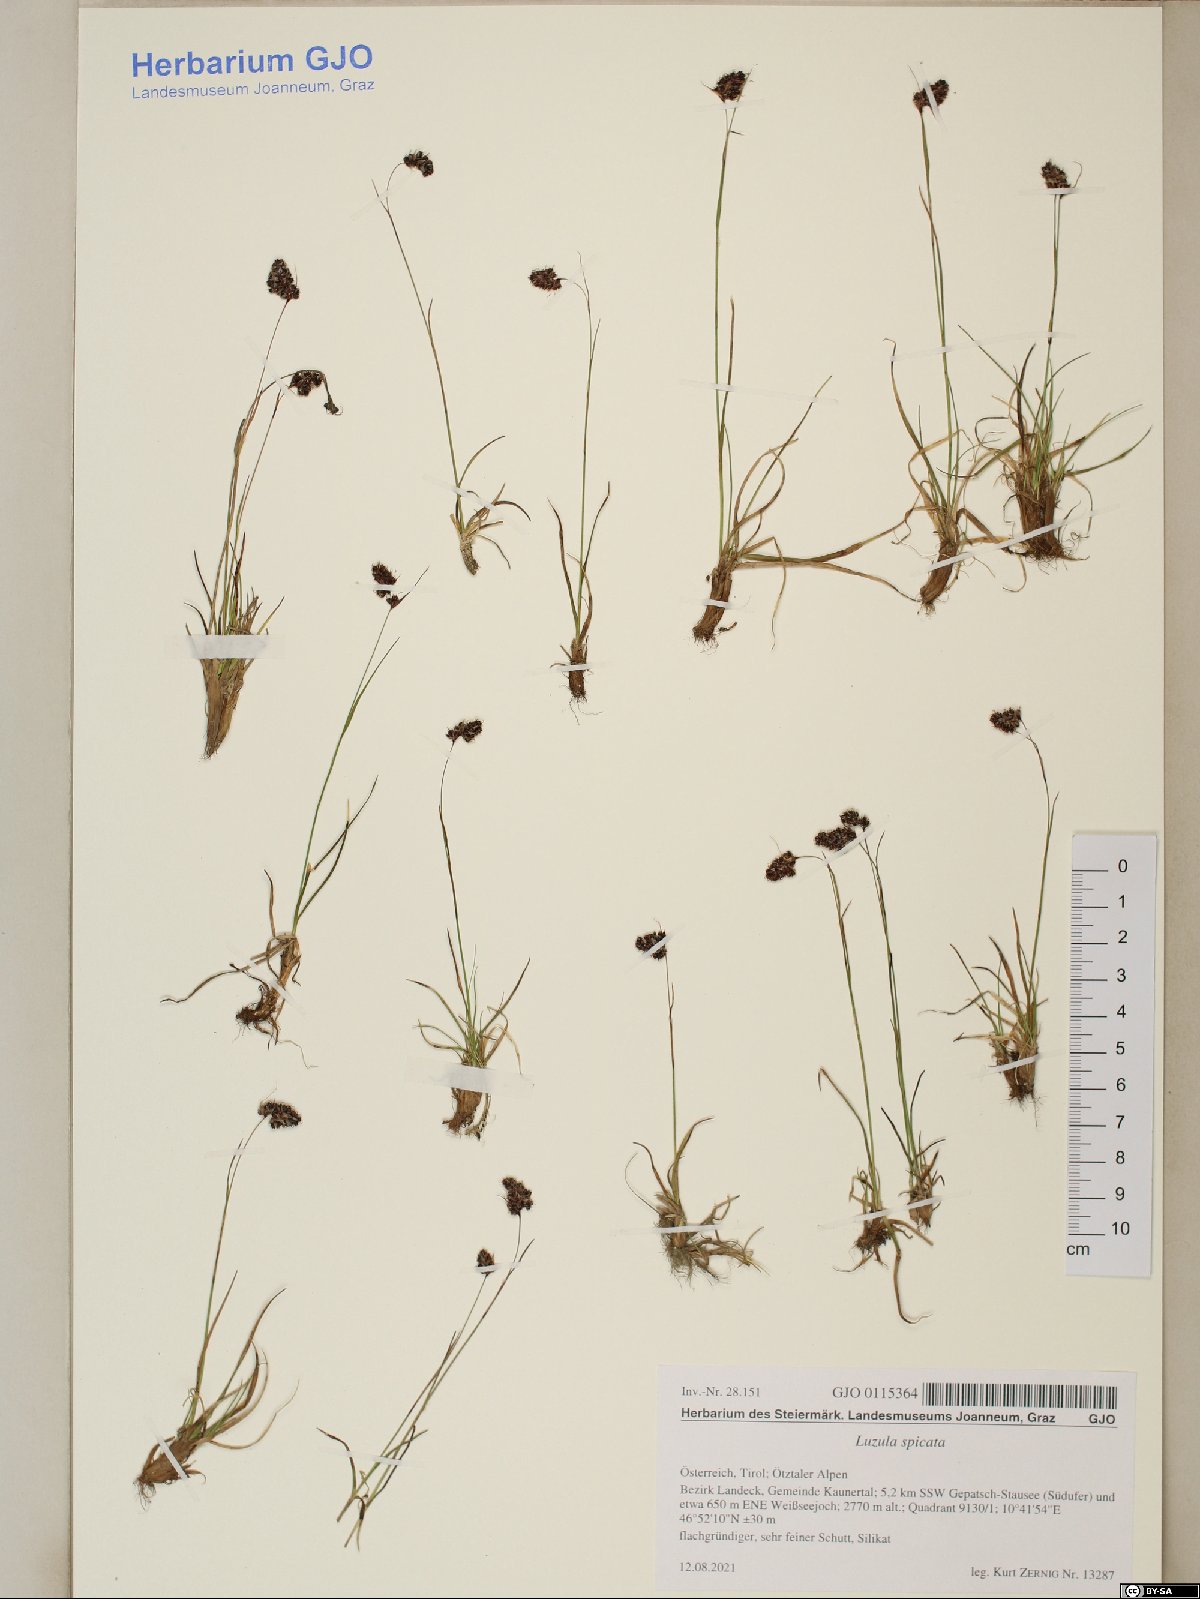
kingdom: Plantae
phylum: Tracheophyta
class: Liliopsida
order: Poales
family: Juncaceae
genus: Luzula
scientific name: Luzula spicata
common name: Spiked wood-rush
